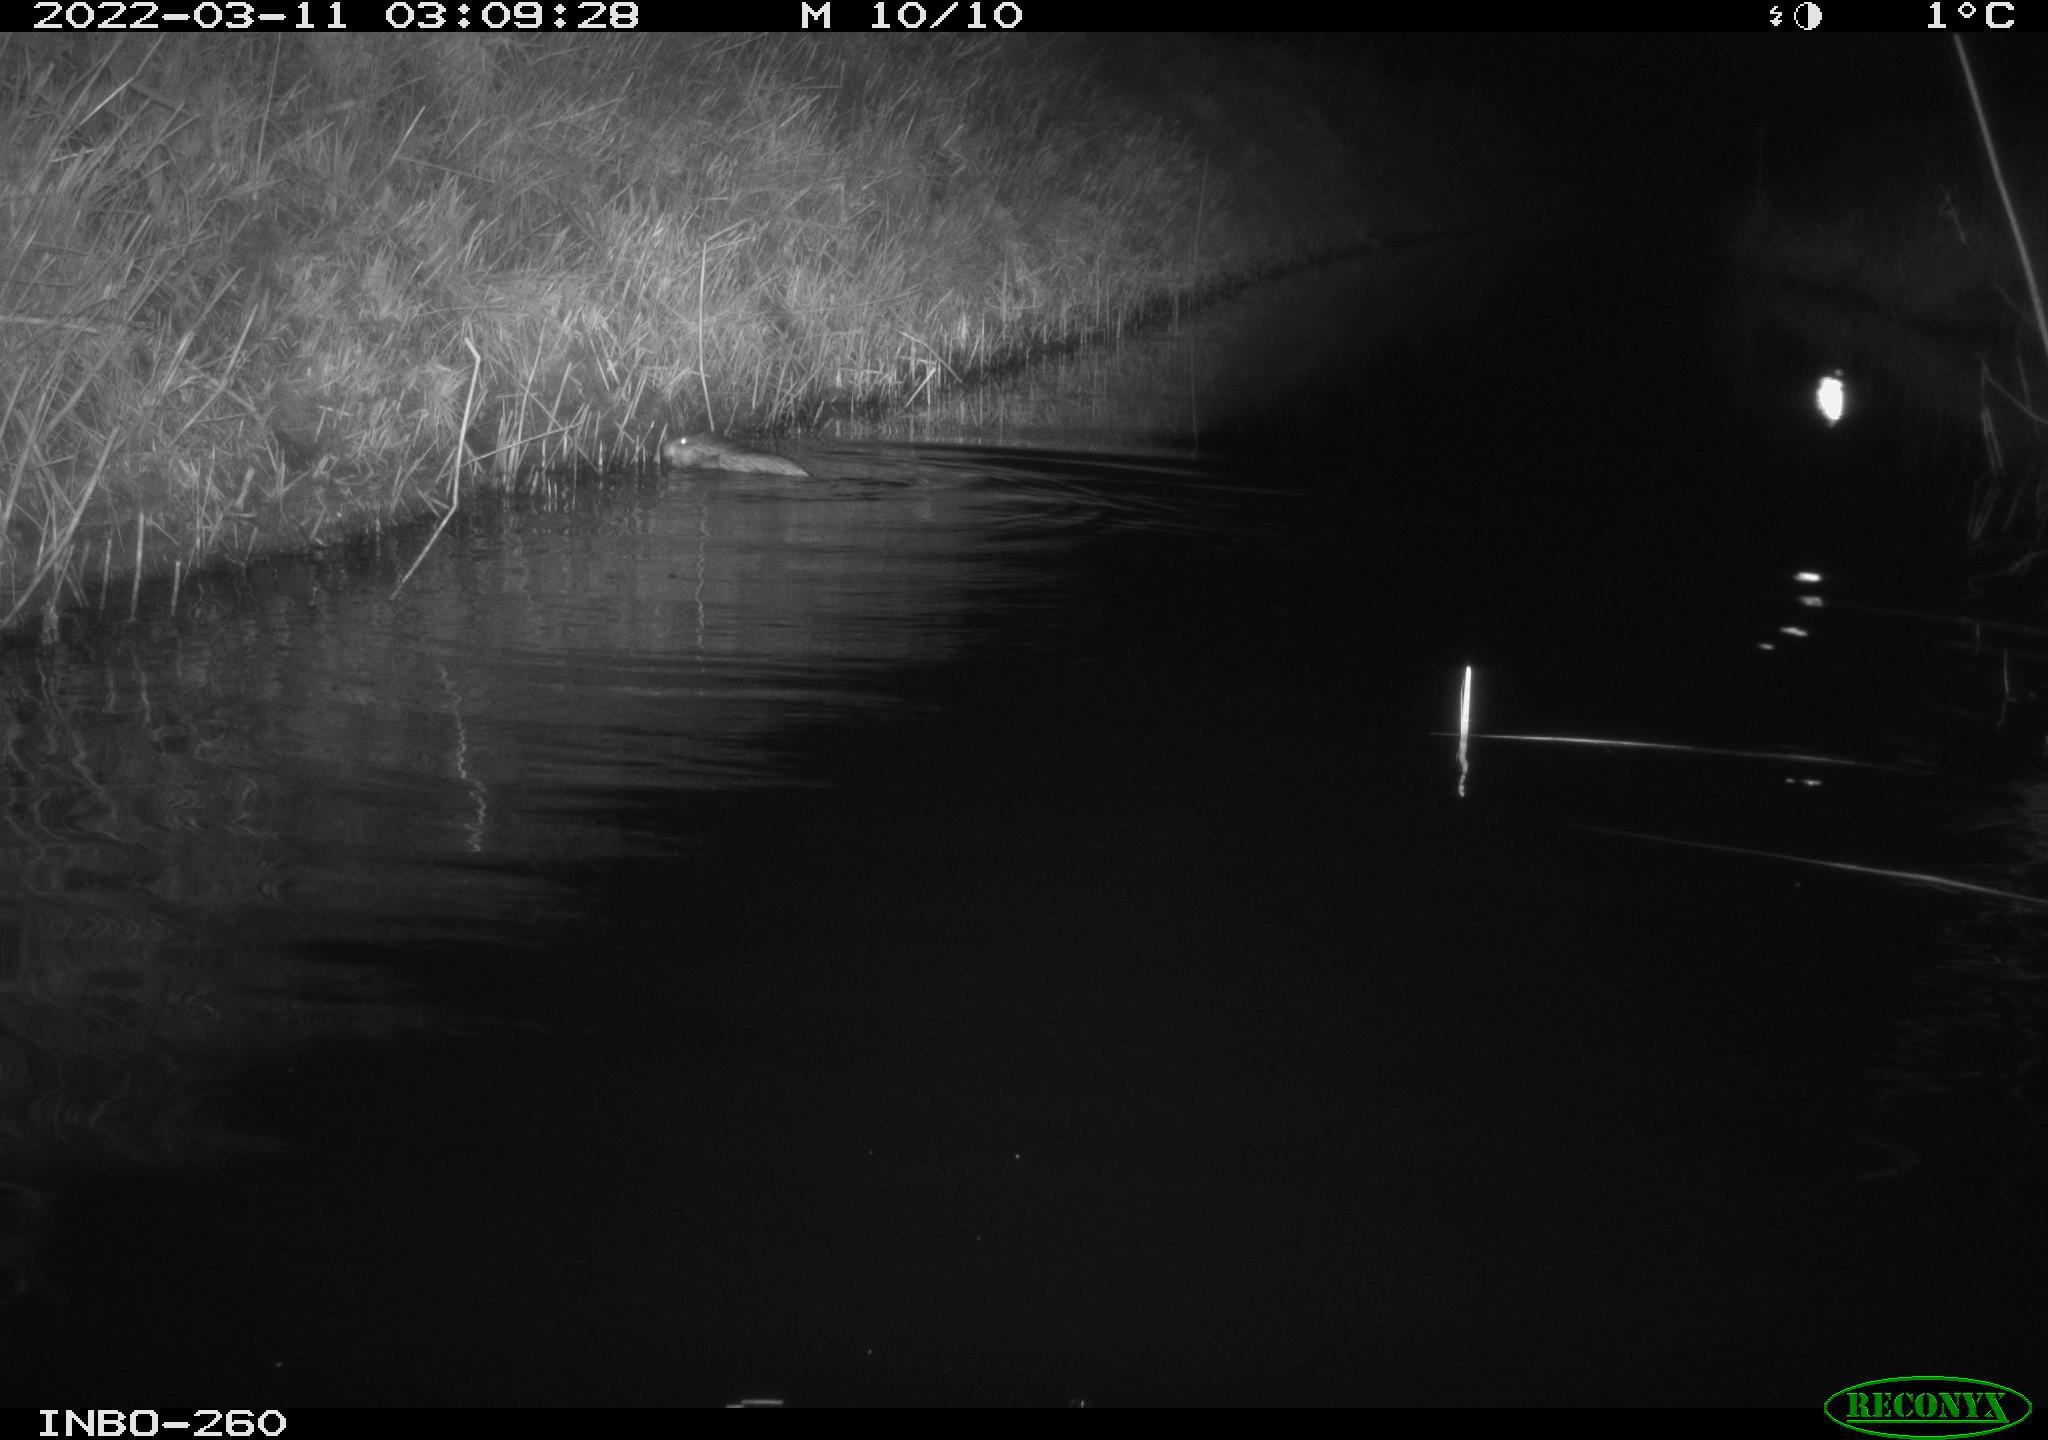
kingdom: Animalia
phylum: Chordata
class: Mammalia
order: Rodentia
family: Cricetidae
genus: Ondatra
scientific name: Ondatra zibethicus
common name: Muskrat
